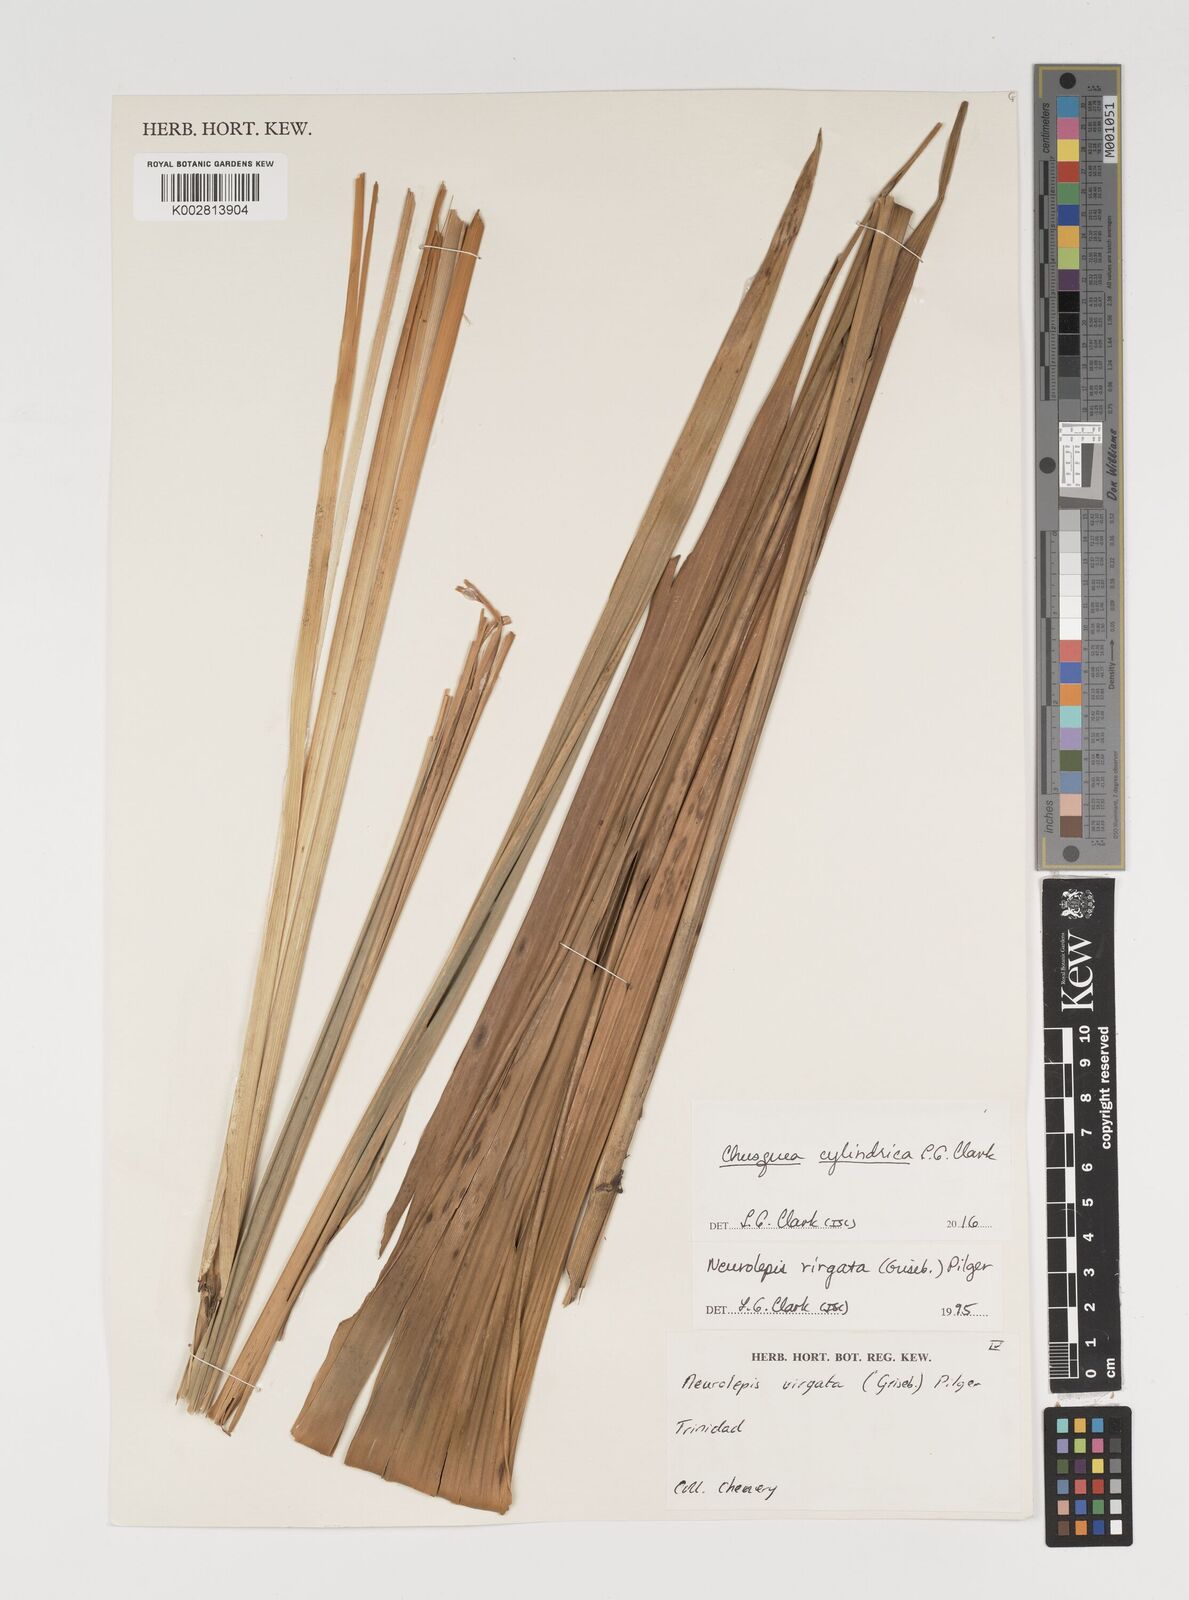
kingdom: Plantae
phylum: Tracheophyta
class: Liliopsida
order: Poales
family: Poaceae
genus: Chusquea
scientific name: Chusquea cylindrica
